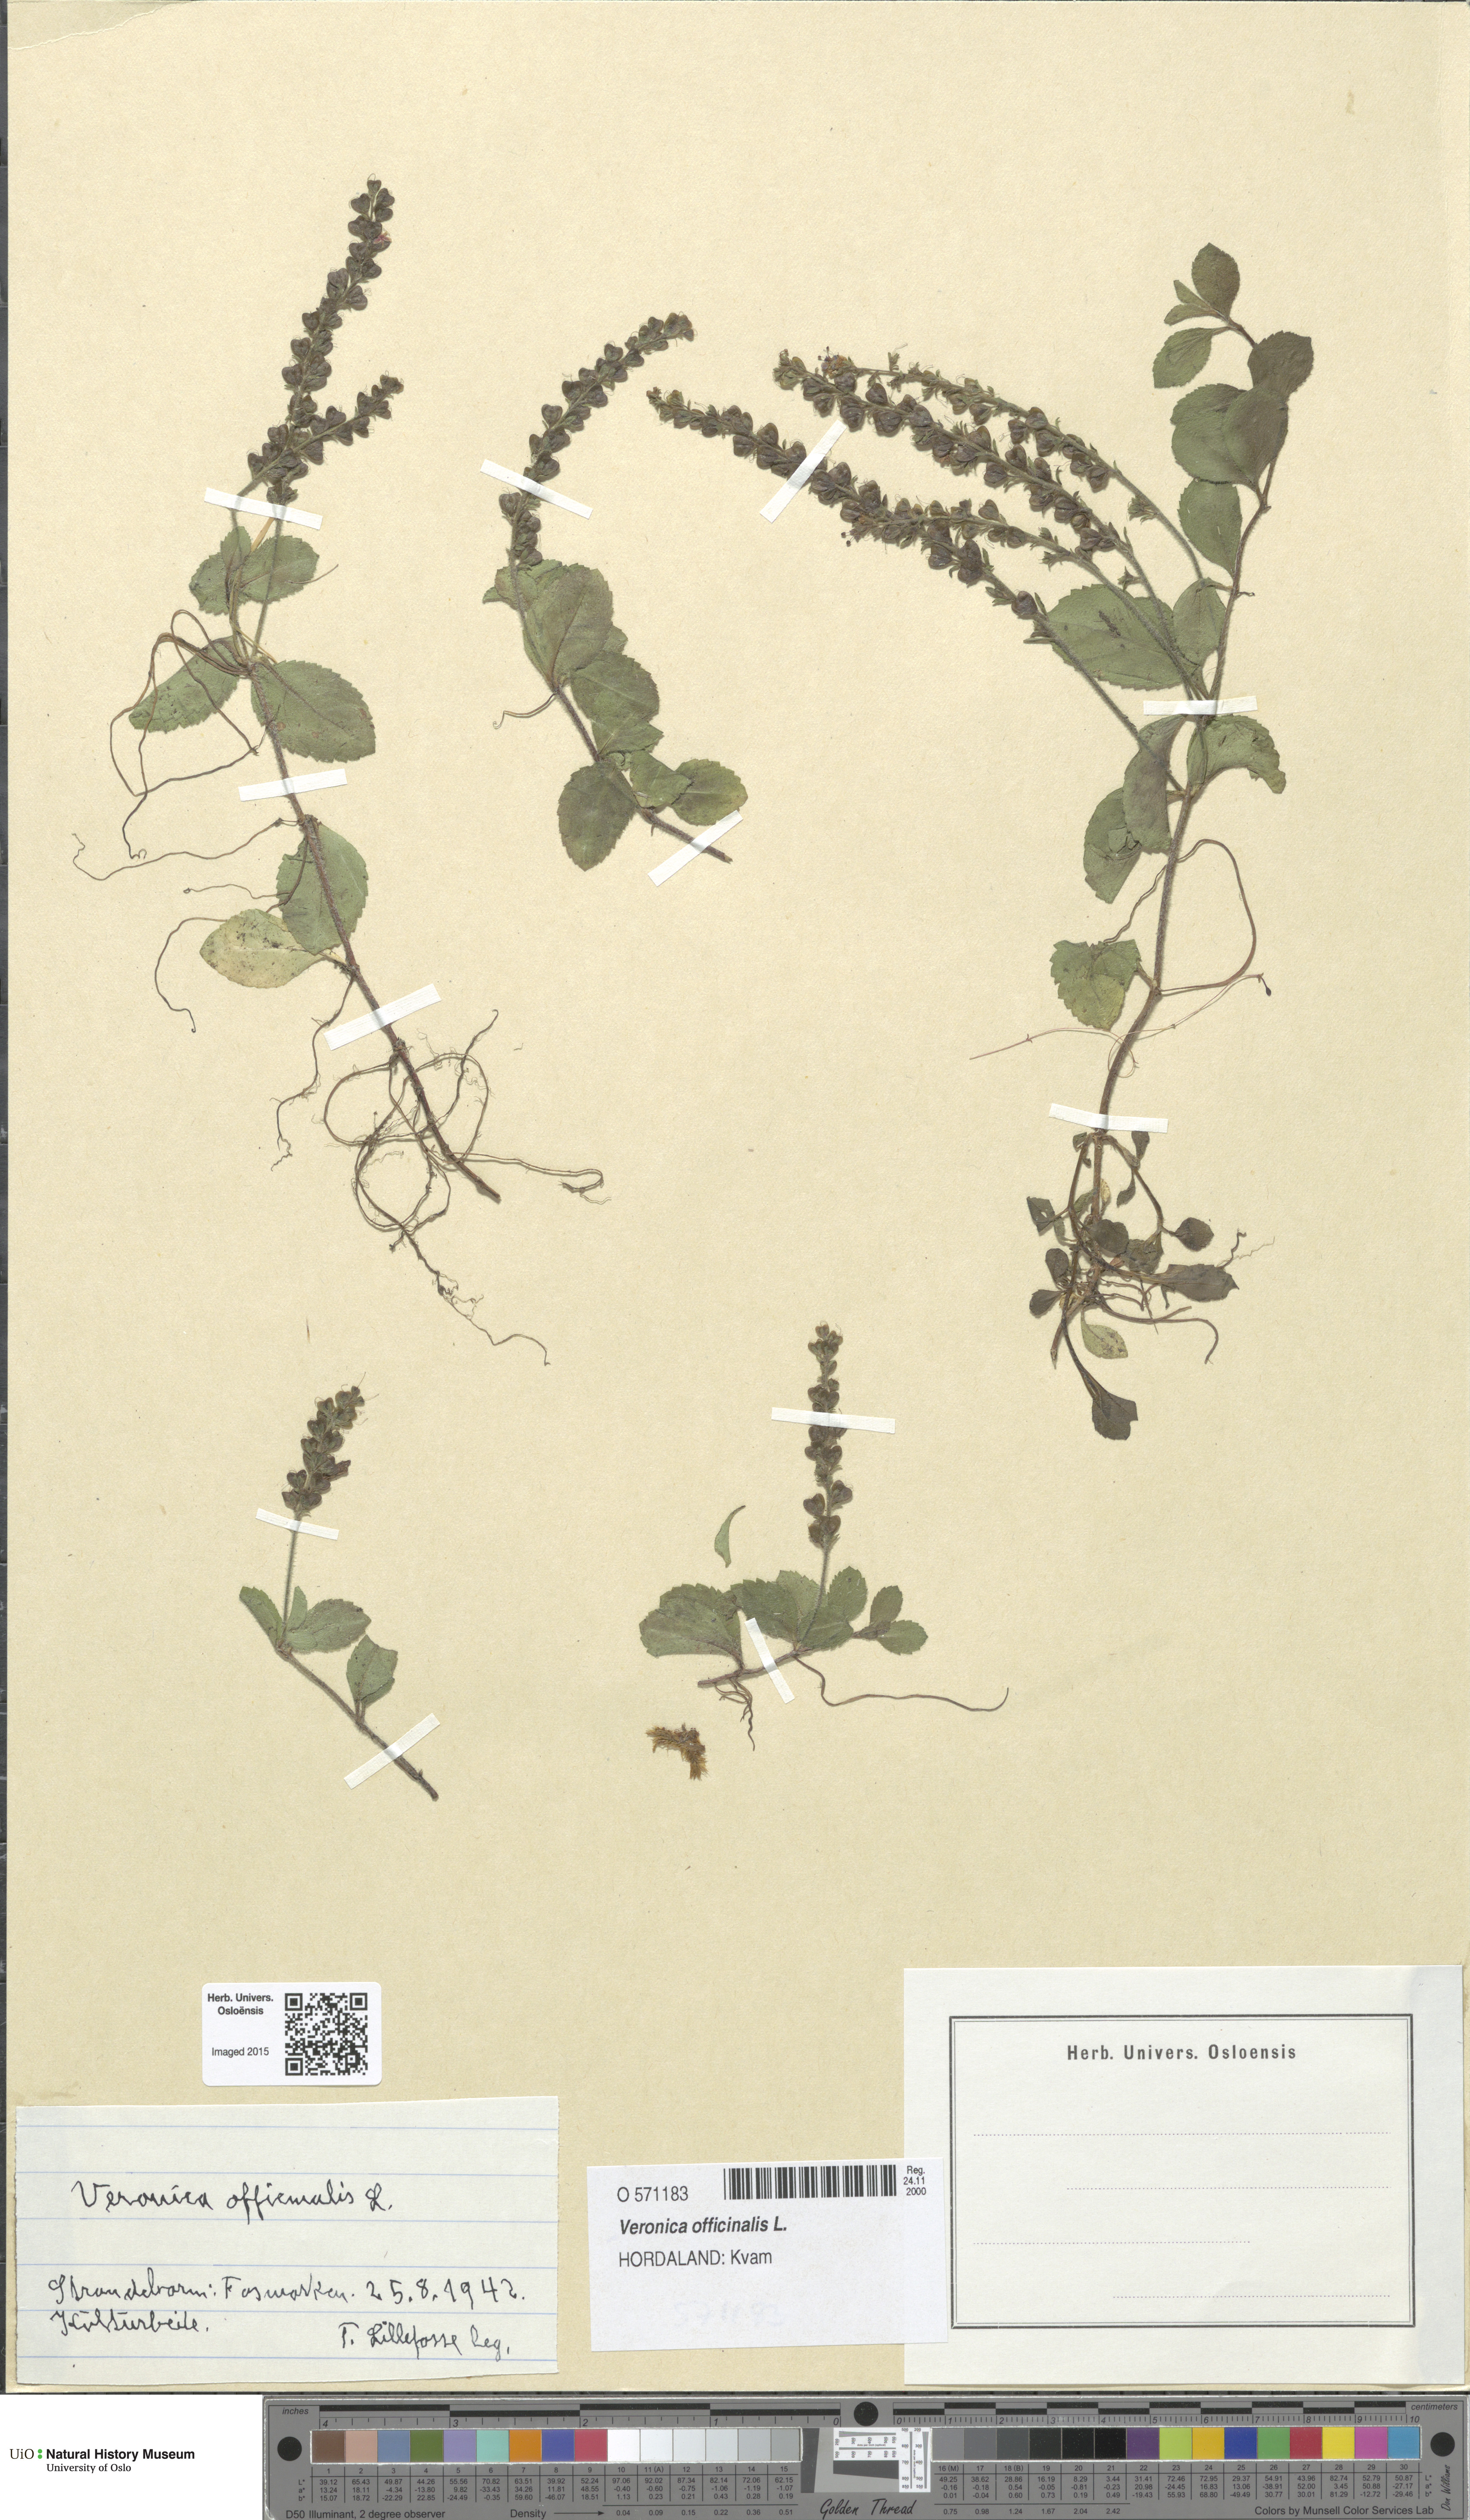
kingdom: Plantae
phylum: Tracheophyta
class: Magnoliopsida
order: Lamiales
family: Plantaginaceae
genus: Veronica
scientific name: Veronica officinalis
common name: Common speedwell
